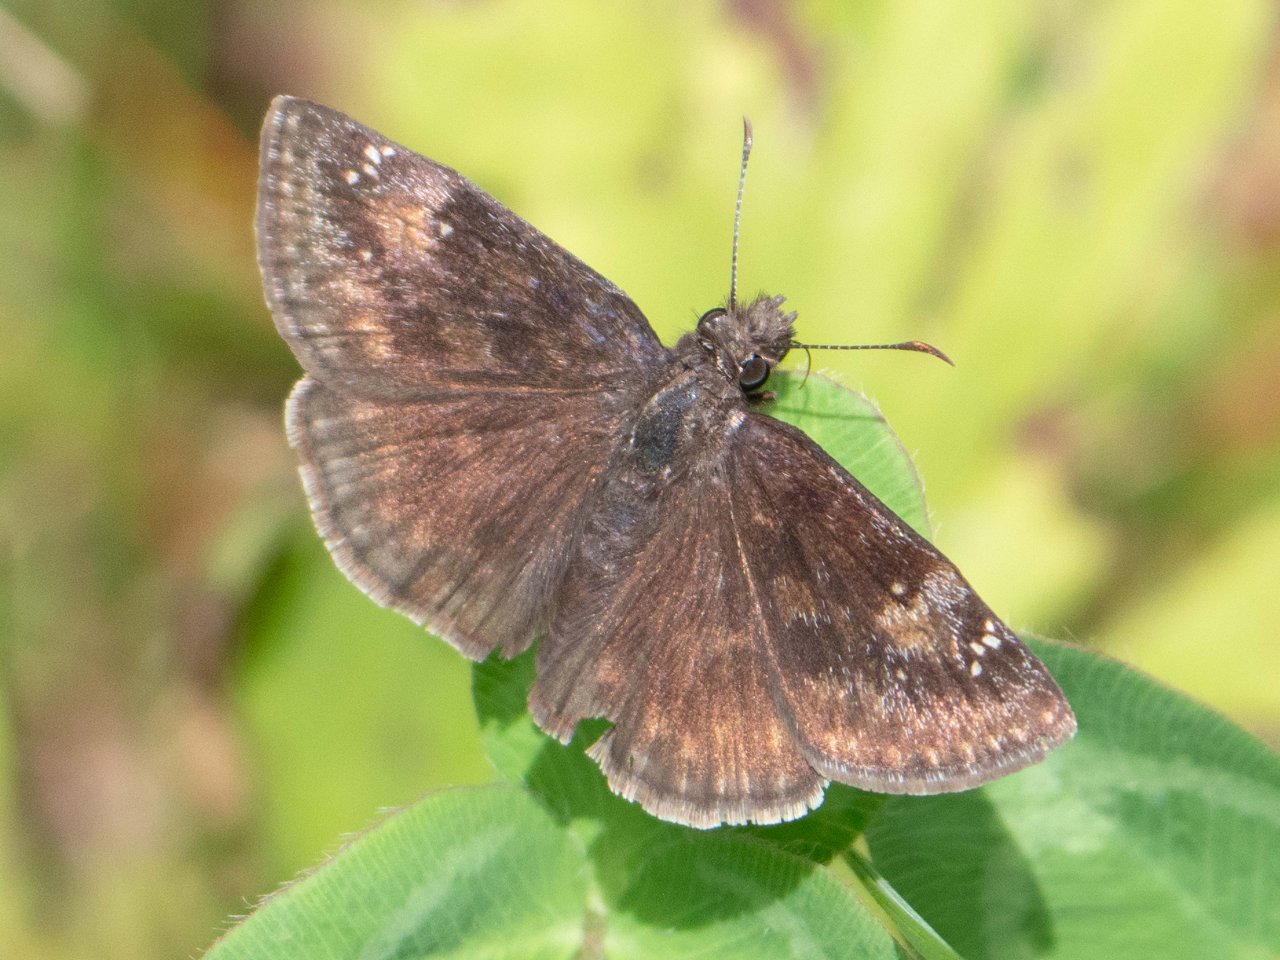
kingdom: Animalia
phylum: Arthropoda
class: Insecta
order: Lepidoptera
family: Hesperiidae
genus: Gesta
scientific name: Gesta
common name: Wild Indigo Duskywing
